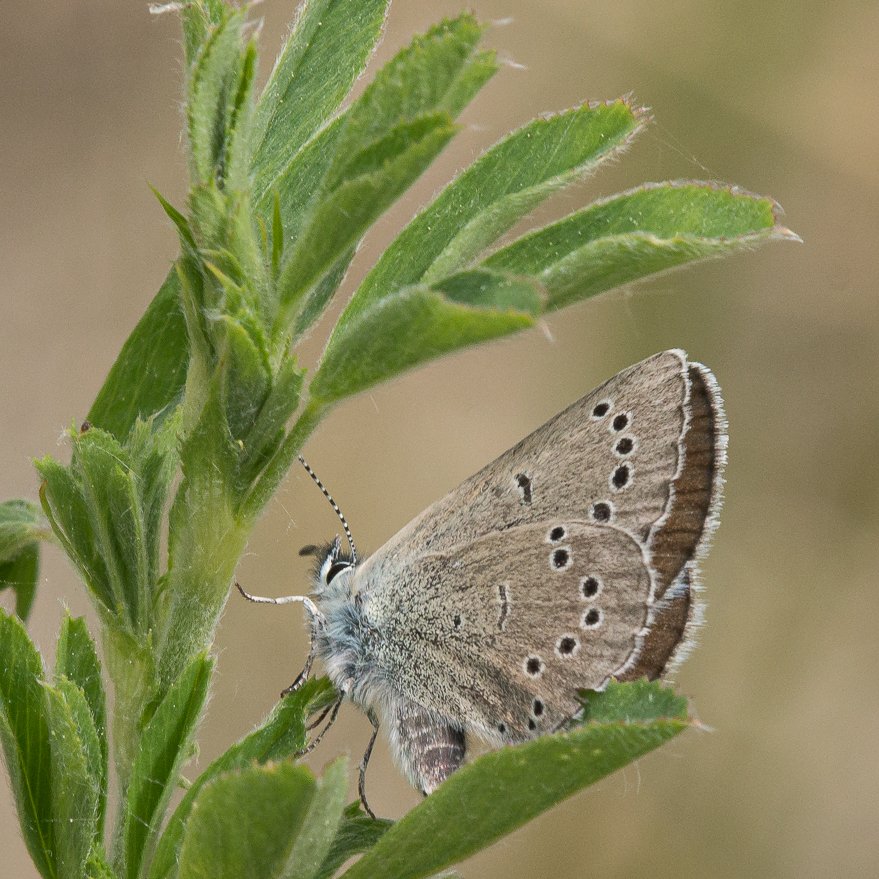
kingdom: Animalia
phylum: Arthropoda
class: Insecta
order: Lepidoptera
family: Lycaenidae
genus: Glaucopsyche
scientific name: Glaucopsyche lygdamus
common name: Silvery Blue
